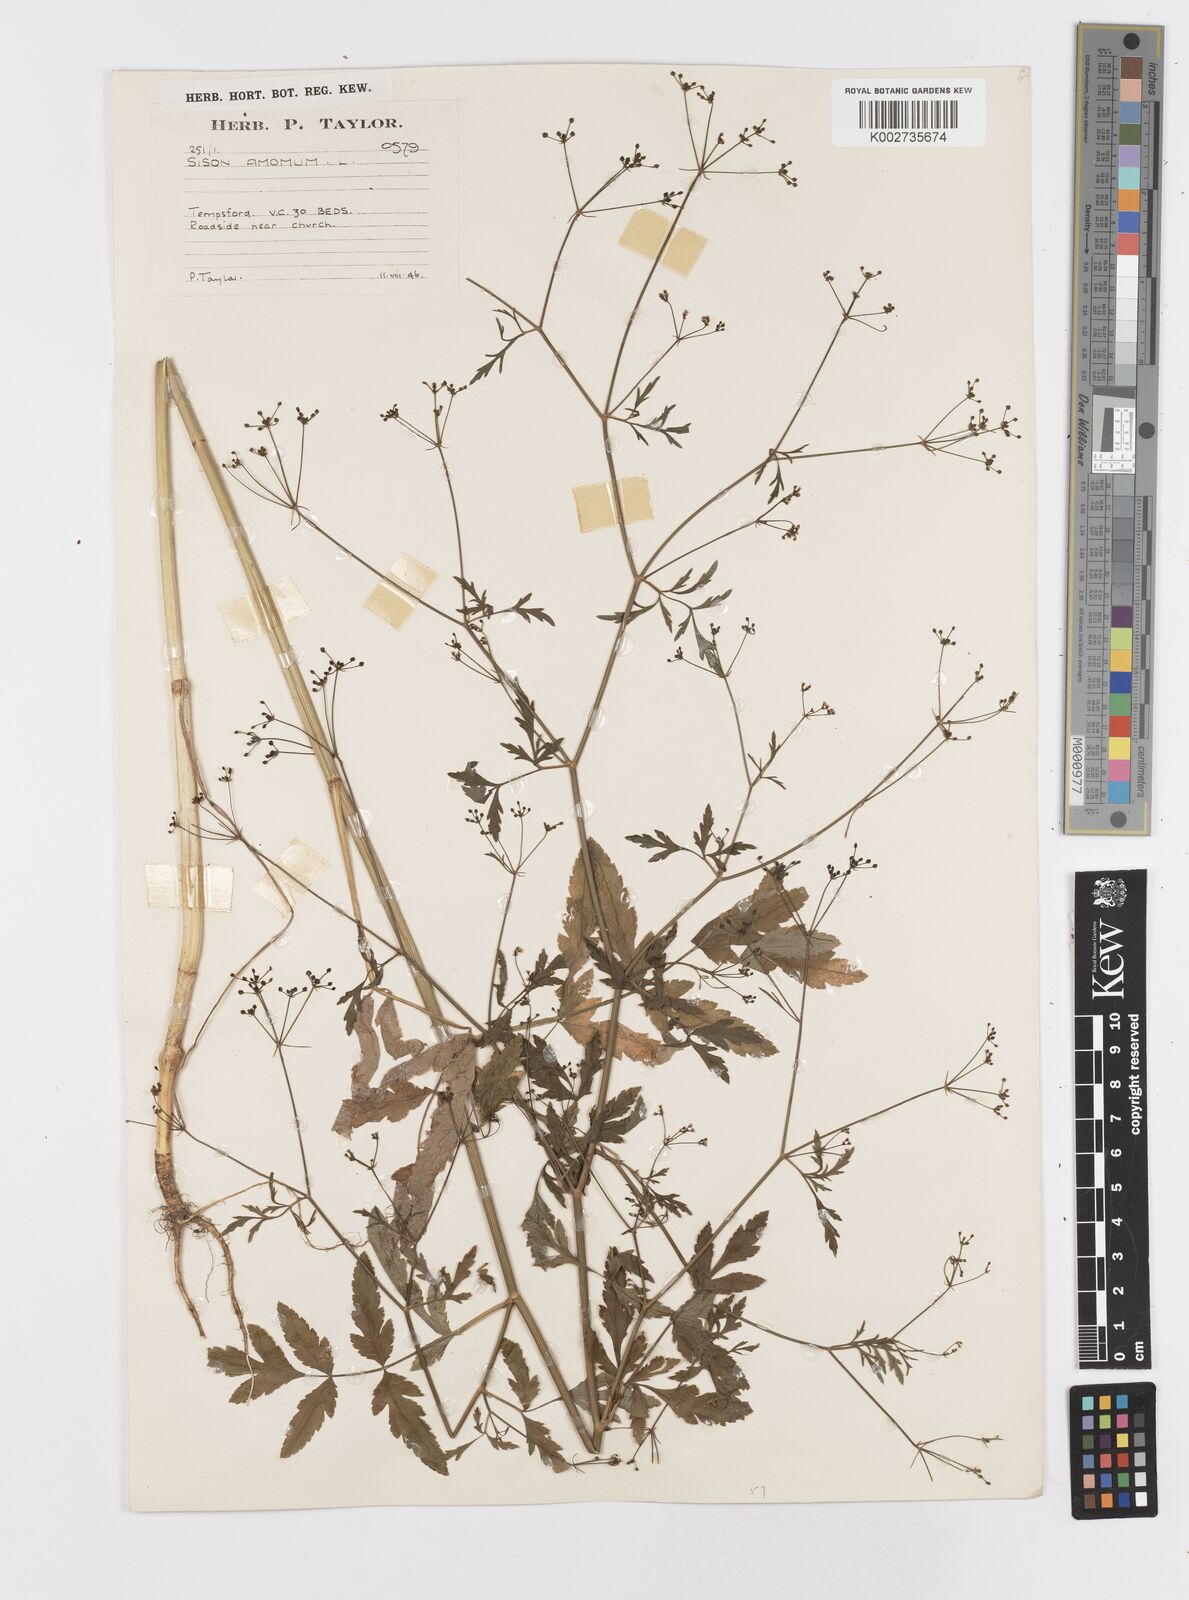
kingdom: Plantae
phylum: Tracheophyta
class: Magnoliopsida
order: Apiales
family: Apiaceae
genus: Sison
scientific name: Sison amomum
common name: Stone-parsley
